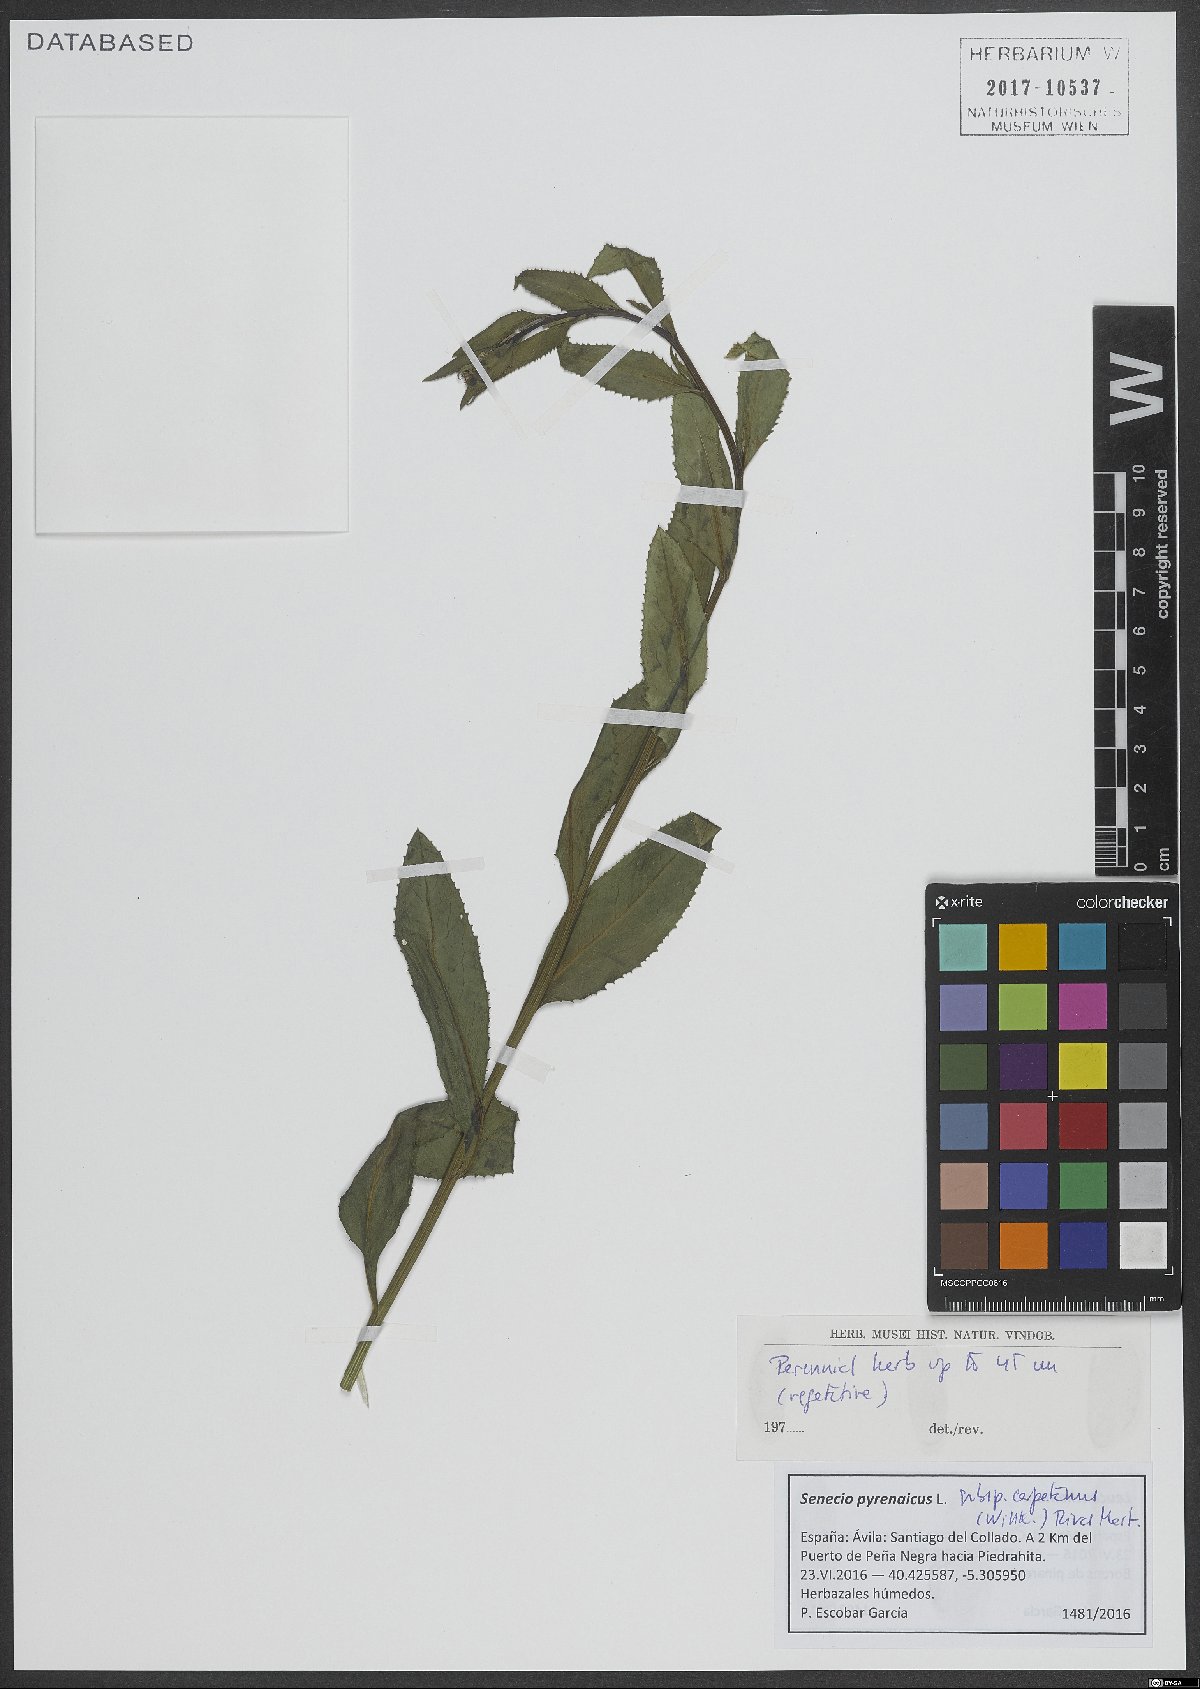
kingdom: Plantae
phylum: Tracheophyta
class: Magnoliopsida
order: Asterales
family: Asteraceae
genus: Senecio
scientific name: Senecio pyrenaicus
